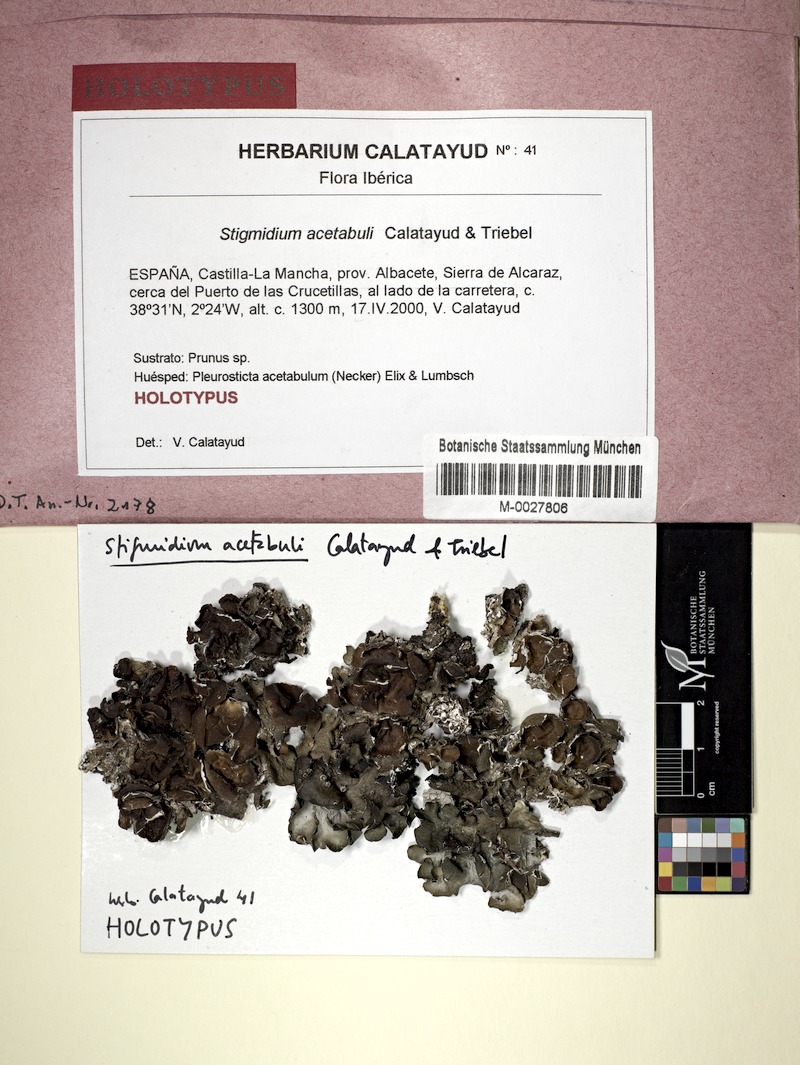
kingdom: Fungi
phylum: Ascomycota
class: Dothideomycetes
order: Mycosphaerellales
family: Mycosphaerellaceae
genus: Stigmidium
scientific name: Stigmidium acetabuli
